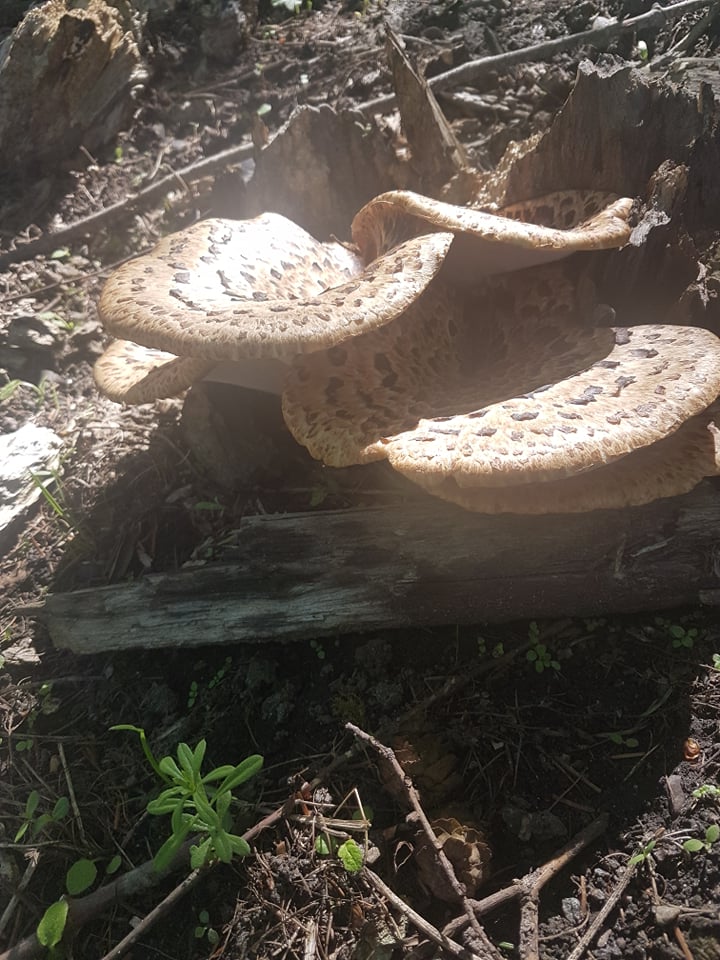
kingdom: Fungi
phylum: Basidiomycota
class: Agaricomycetes
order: Polyporales
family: Polyporaceae
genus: Cerioporus
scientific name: Cerioporus squamosus
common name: skællet stilkporesvamp
